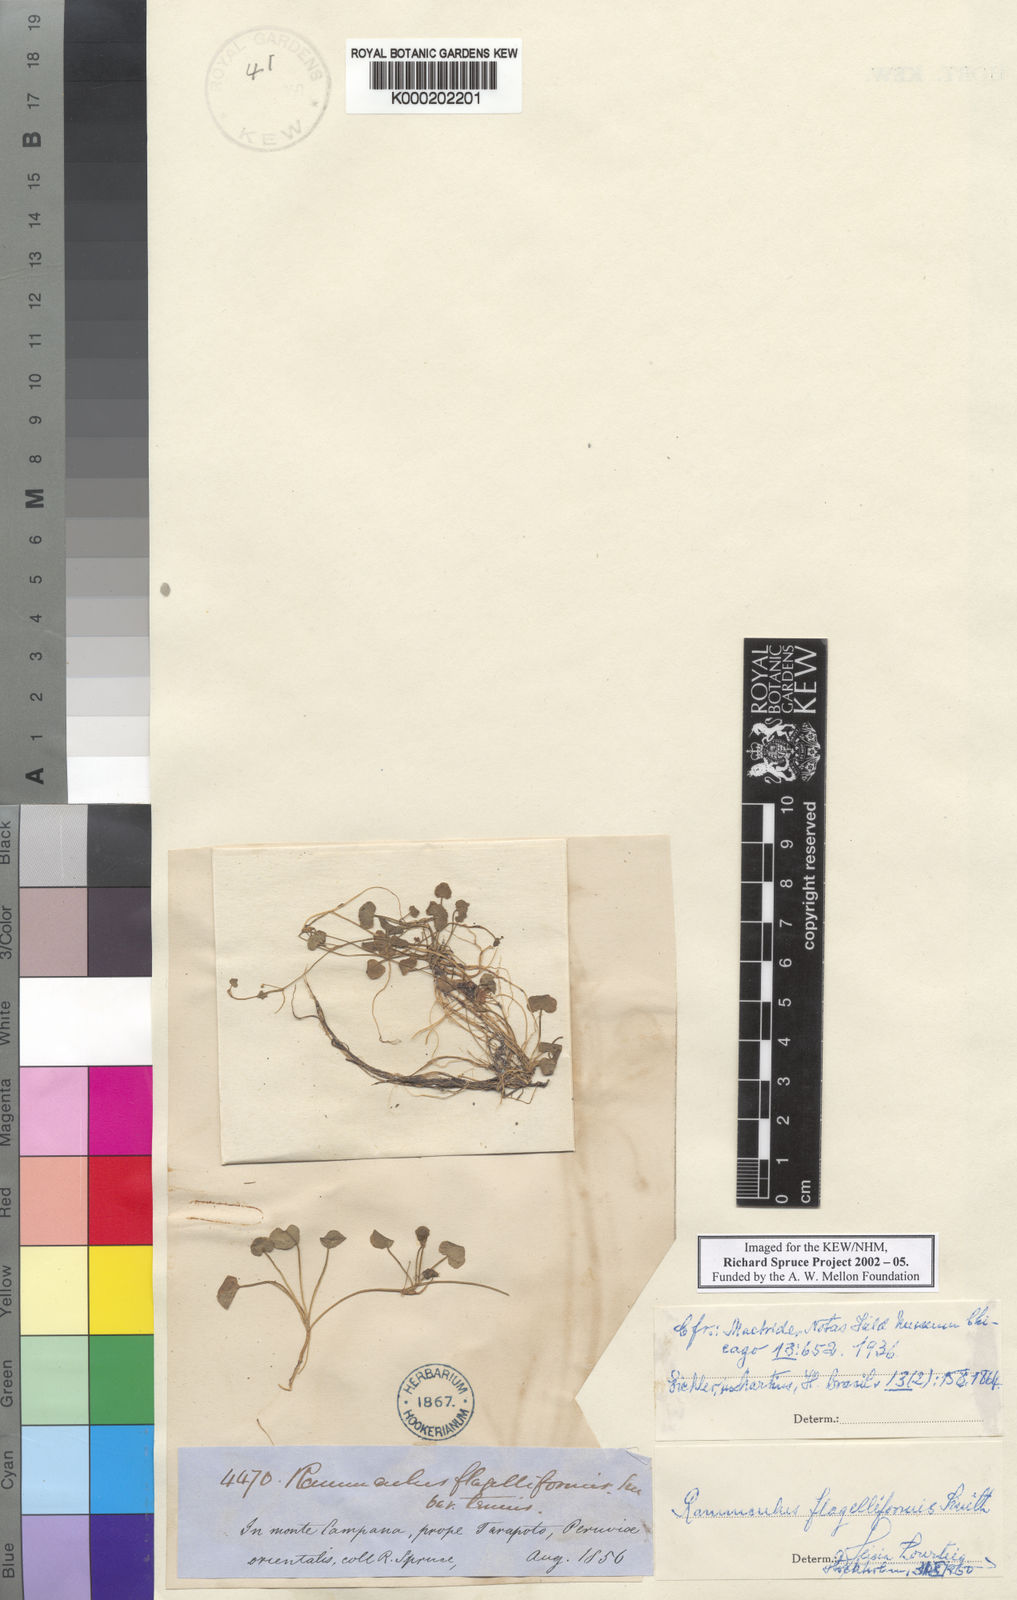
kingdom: Plantae
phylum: Tracheophyta
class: Magnoliopsida
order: Ranunculales
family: Ranunculaceae
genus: Ranunculus
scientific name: Ranunculus flagelliformis
